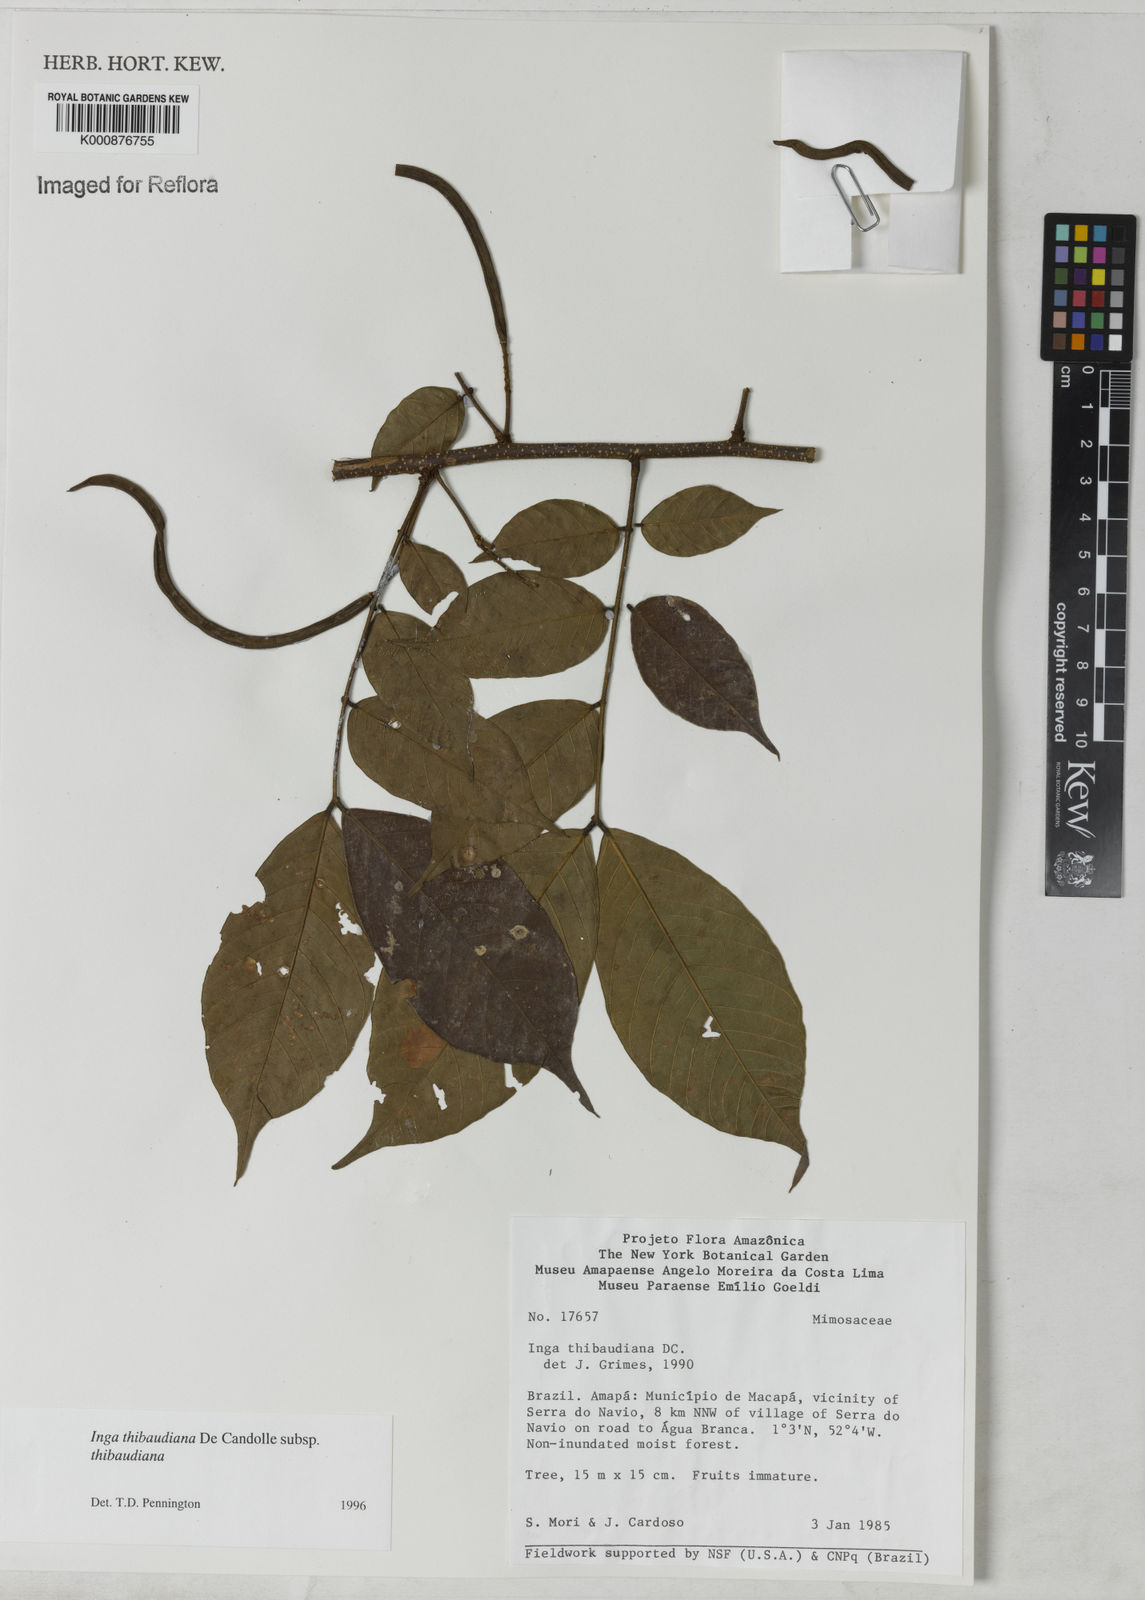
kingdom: Plantae
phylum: Tracheophyta
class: Magnoliopsida
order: Fabales
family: Fabaceae
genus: Inga
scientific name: Inga thibaudiana
